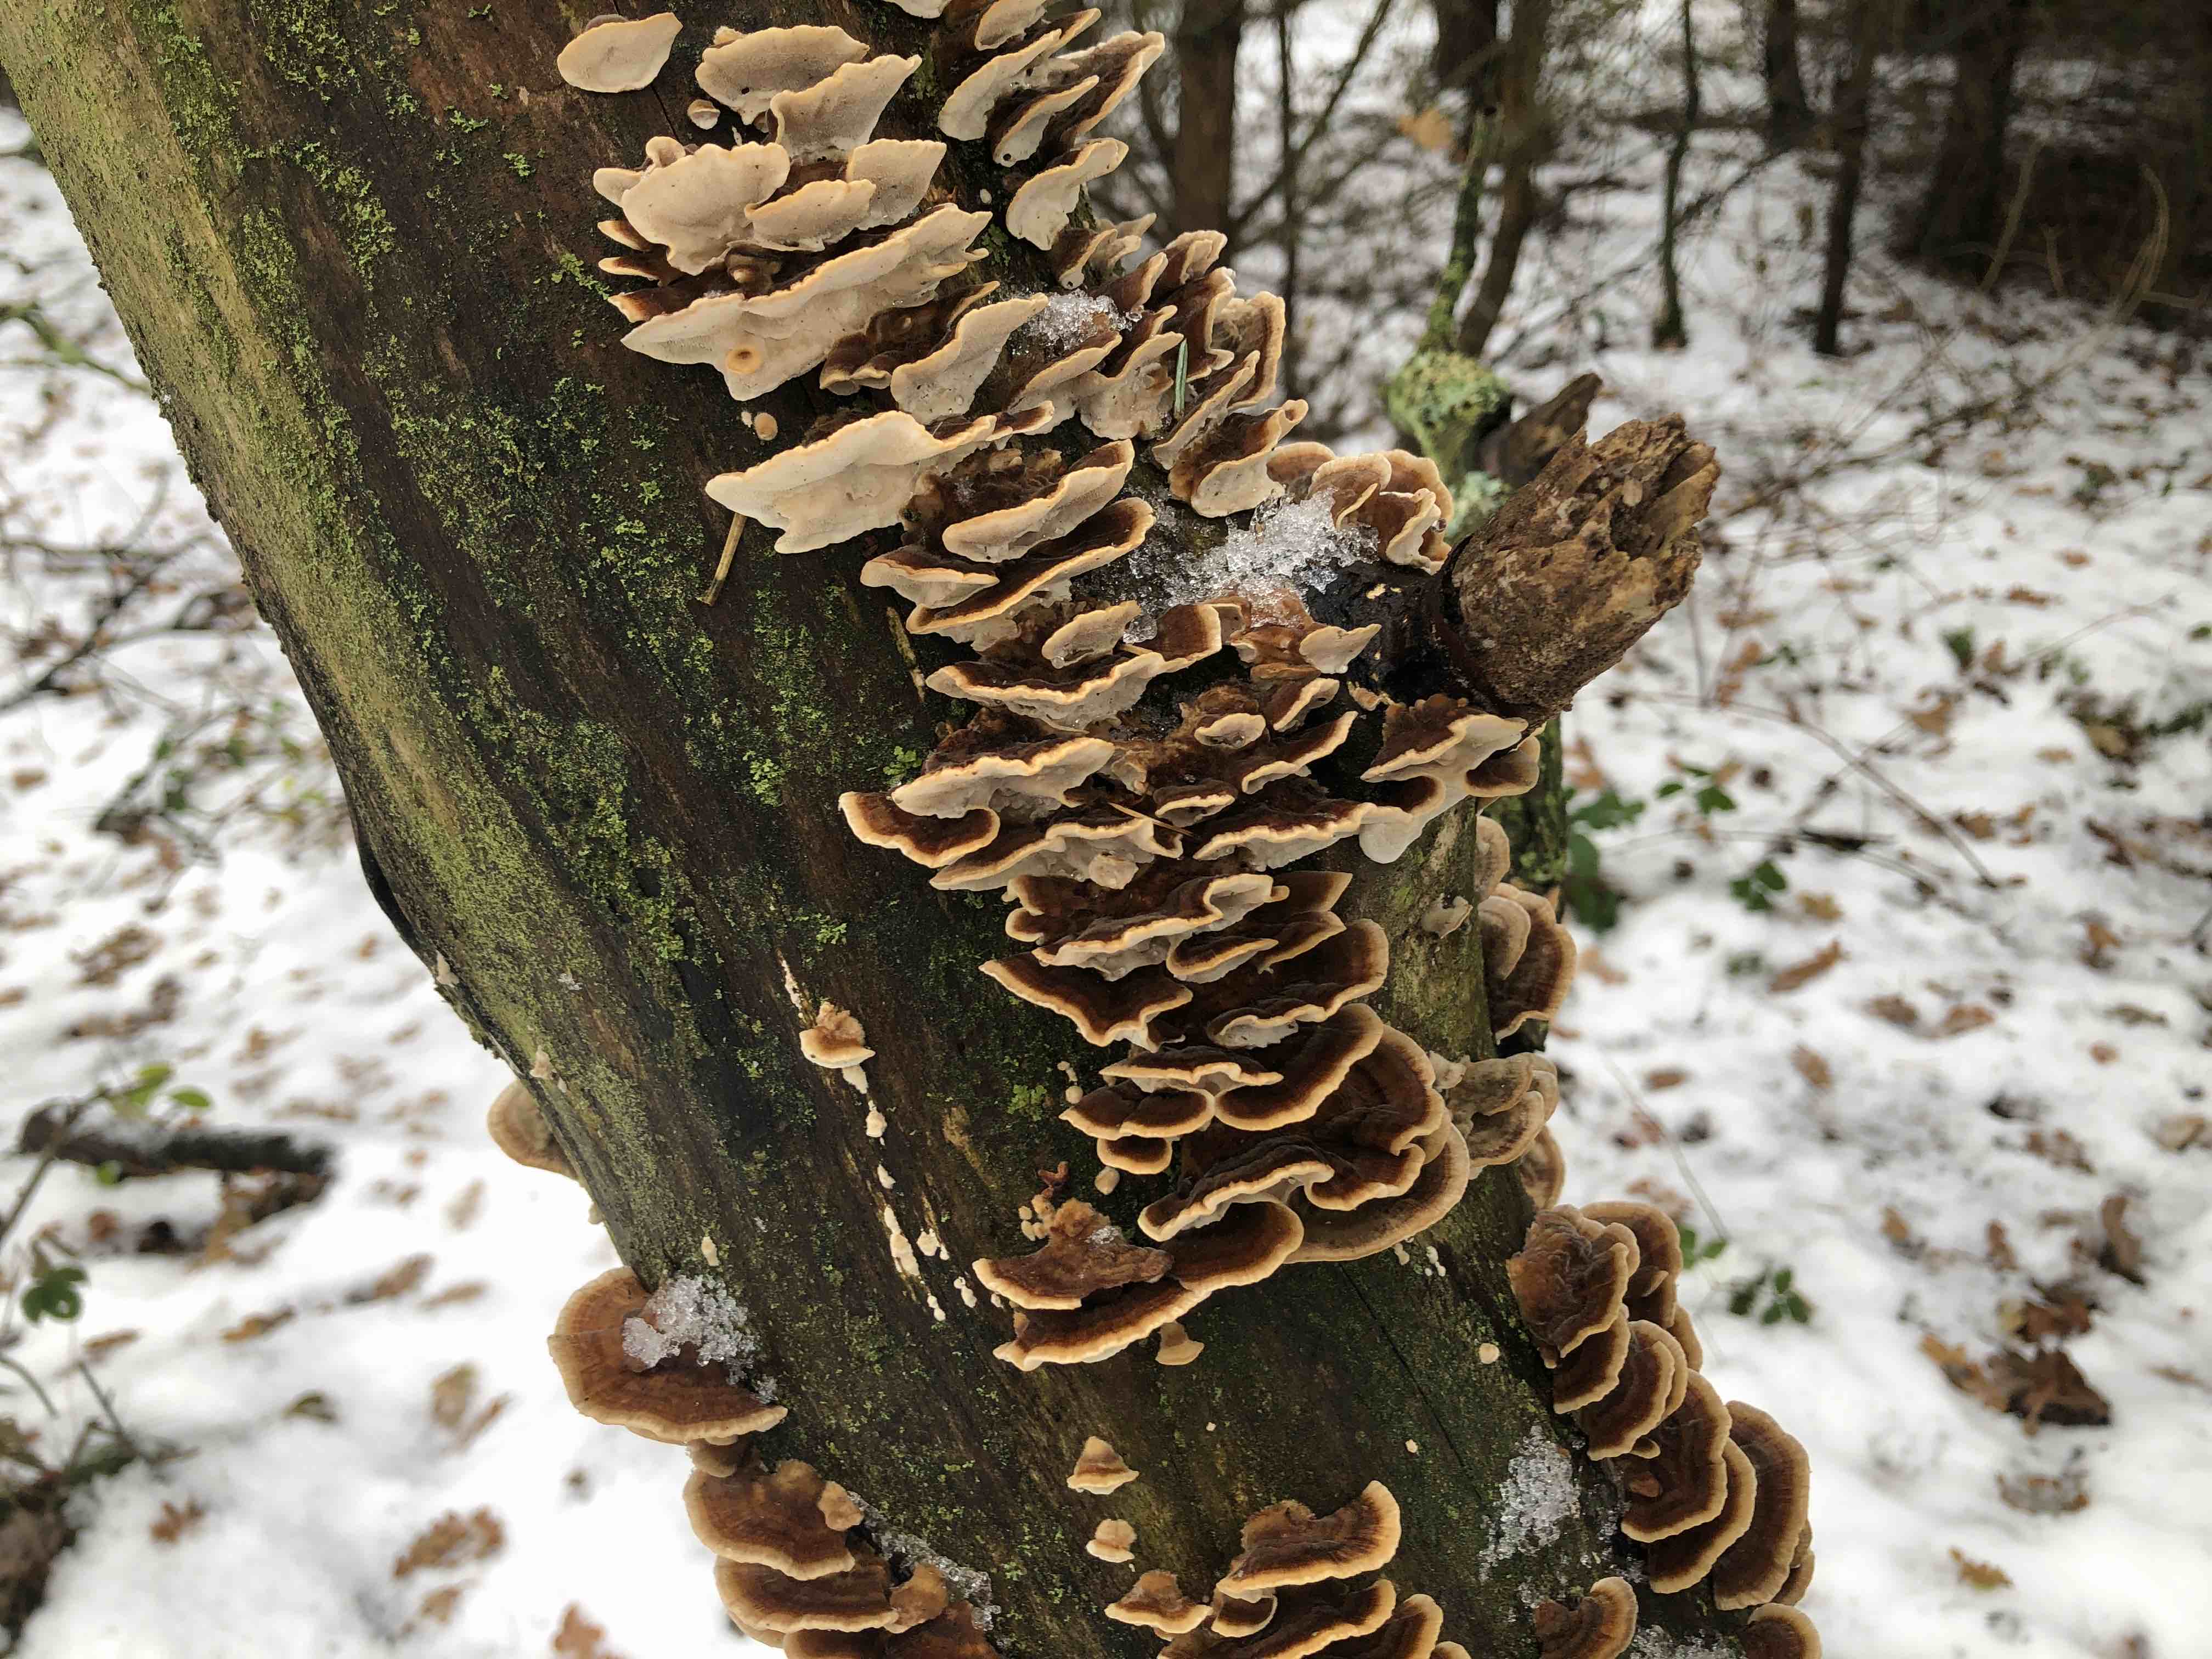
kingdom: Fungi
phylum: Basidiomycota
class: Agaricomycetes
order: Polyporales
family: Polyporaceae
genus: Trametes
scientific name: Trametes versicolor
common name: broget læderporesvamp
